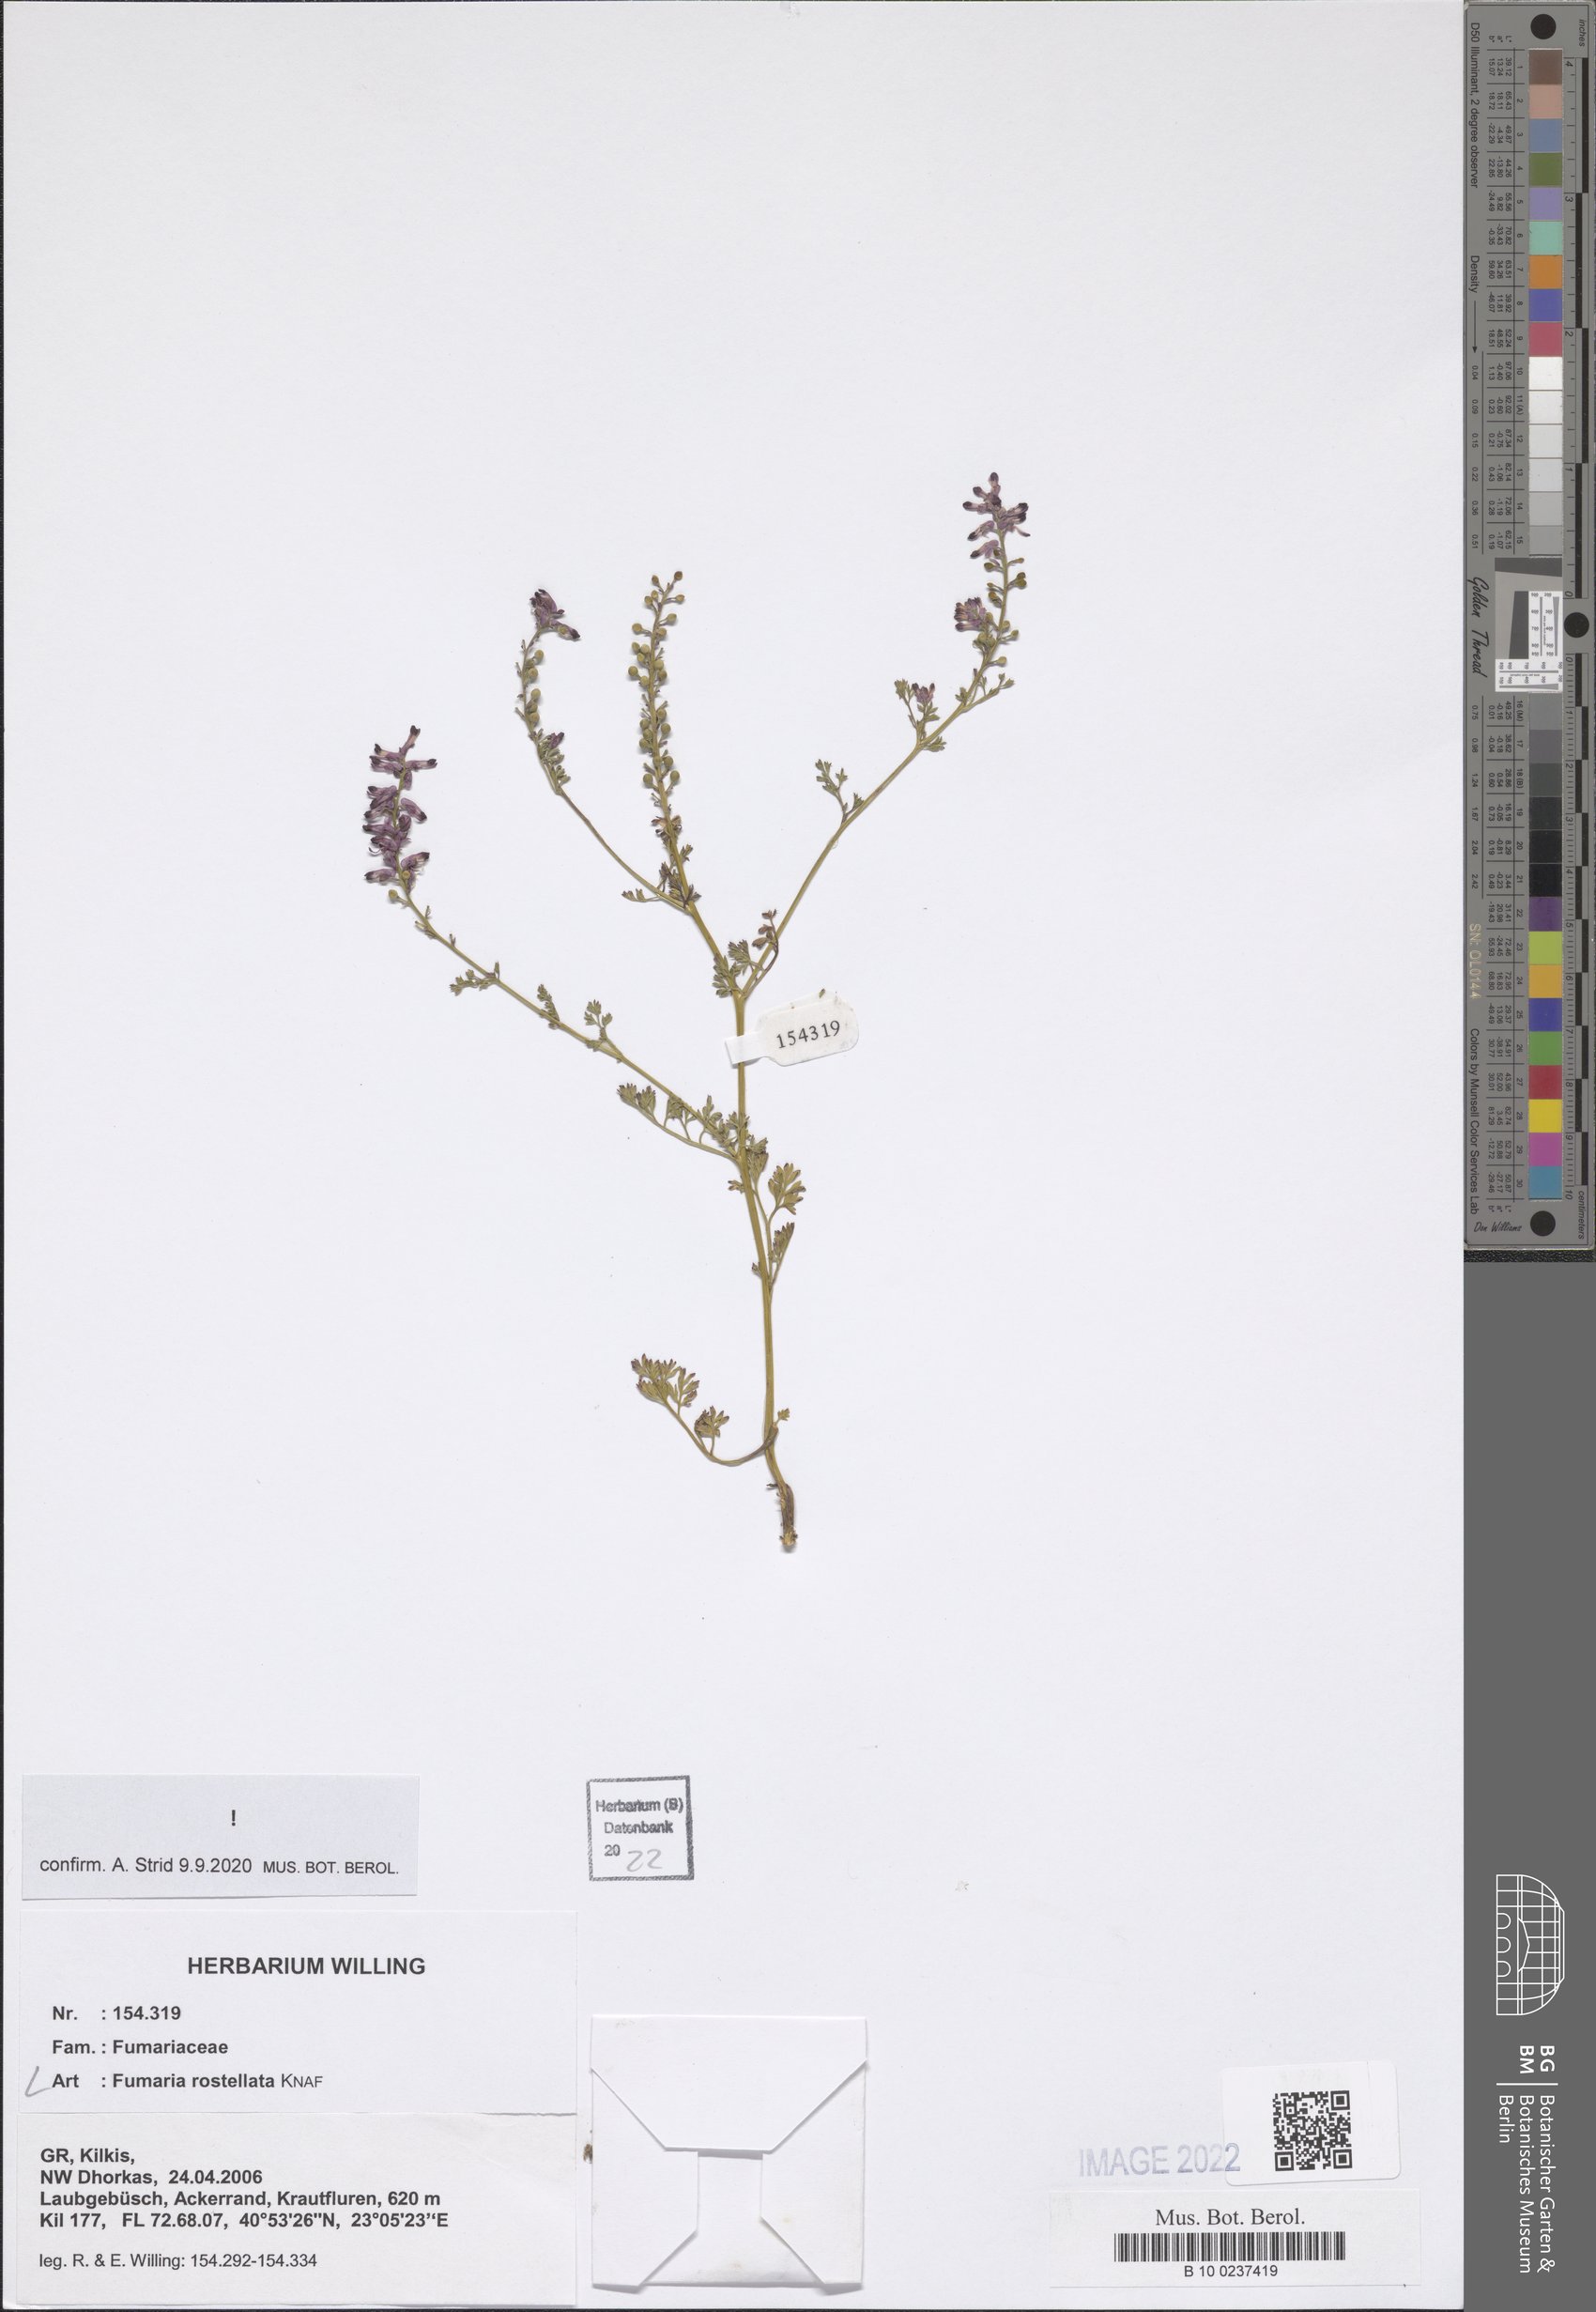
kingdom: Plantae
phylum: Tracheophyta
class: Magnoliopsida
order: Ranunculales
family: Papaveraceae
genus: Fumaria
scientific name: Fumaria rostellata
